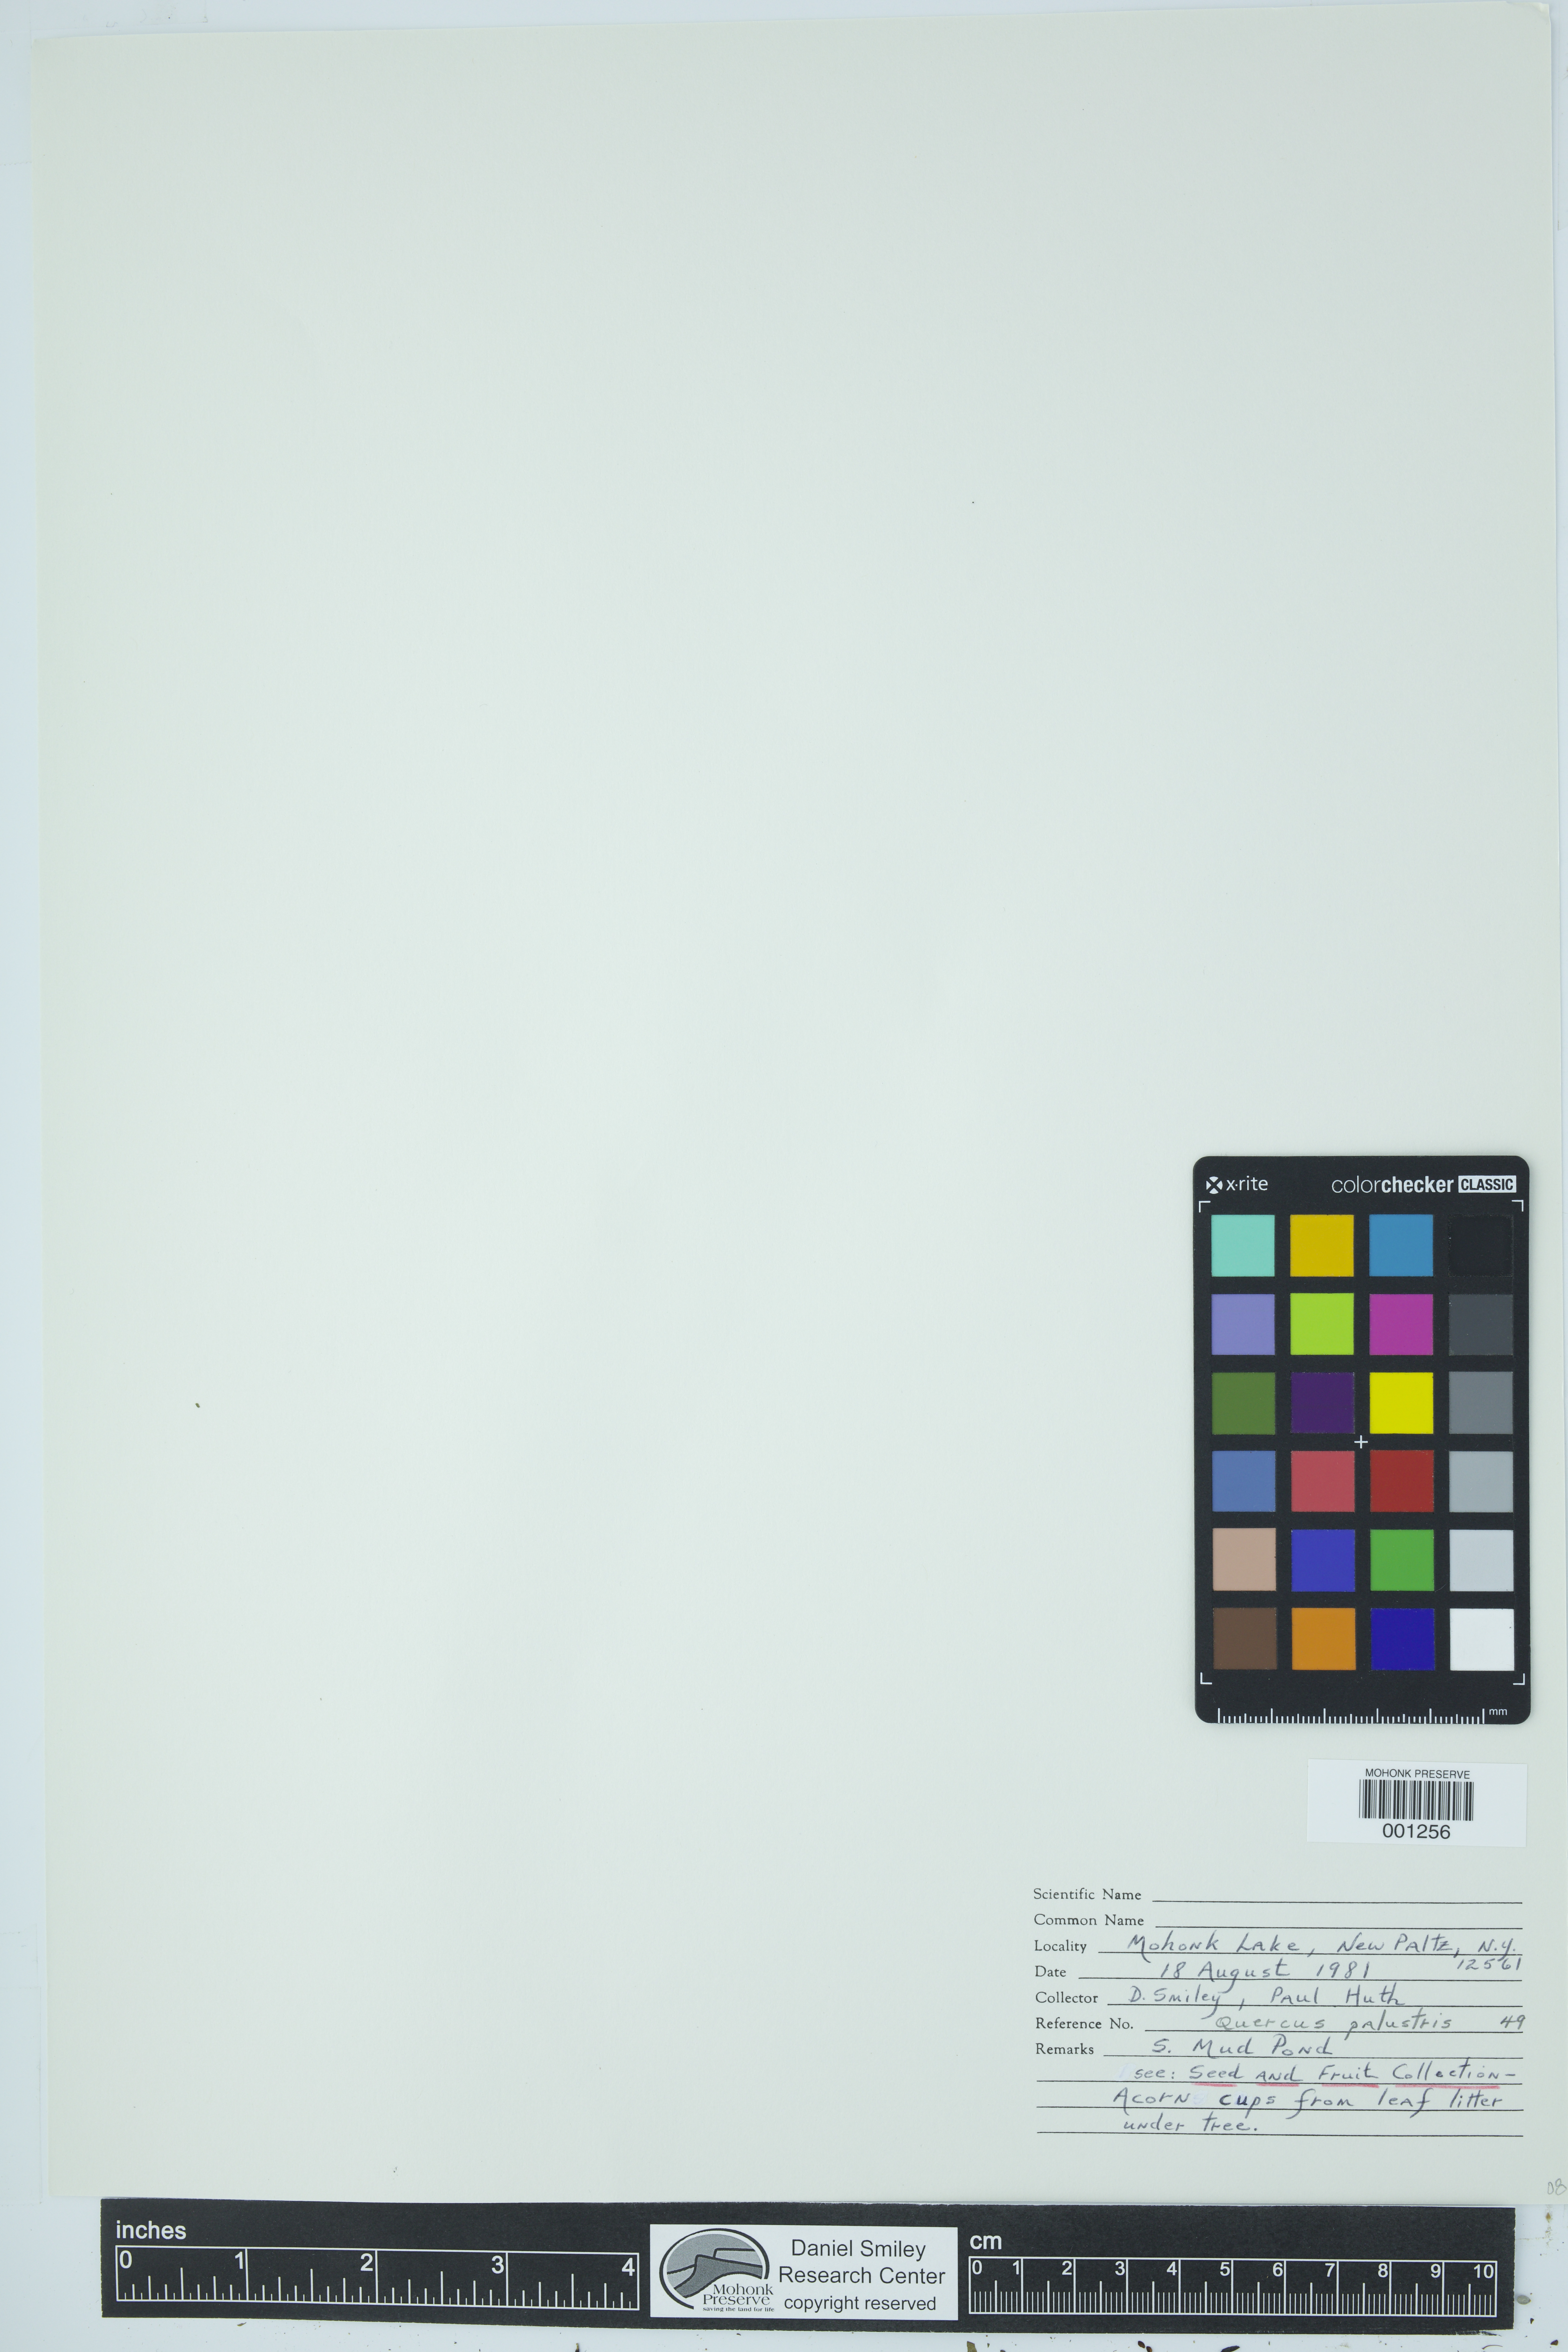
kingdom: Plantae
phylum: Tracheophyta
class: Magnoliopsida
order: Fagales
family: Fagaceae
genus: Quercus
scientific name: Quercus palustris
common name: Pin oak
